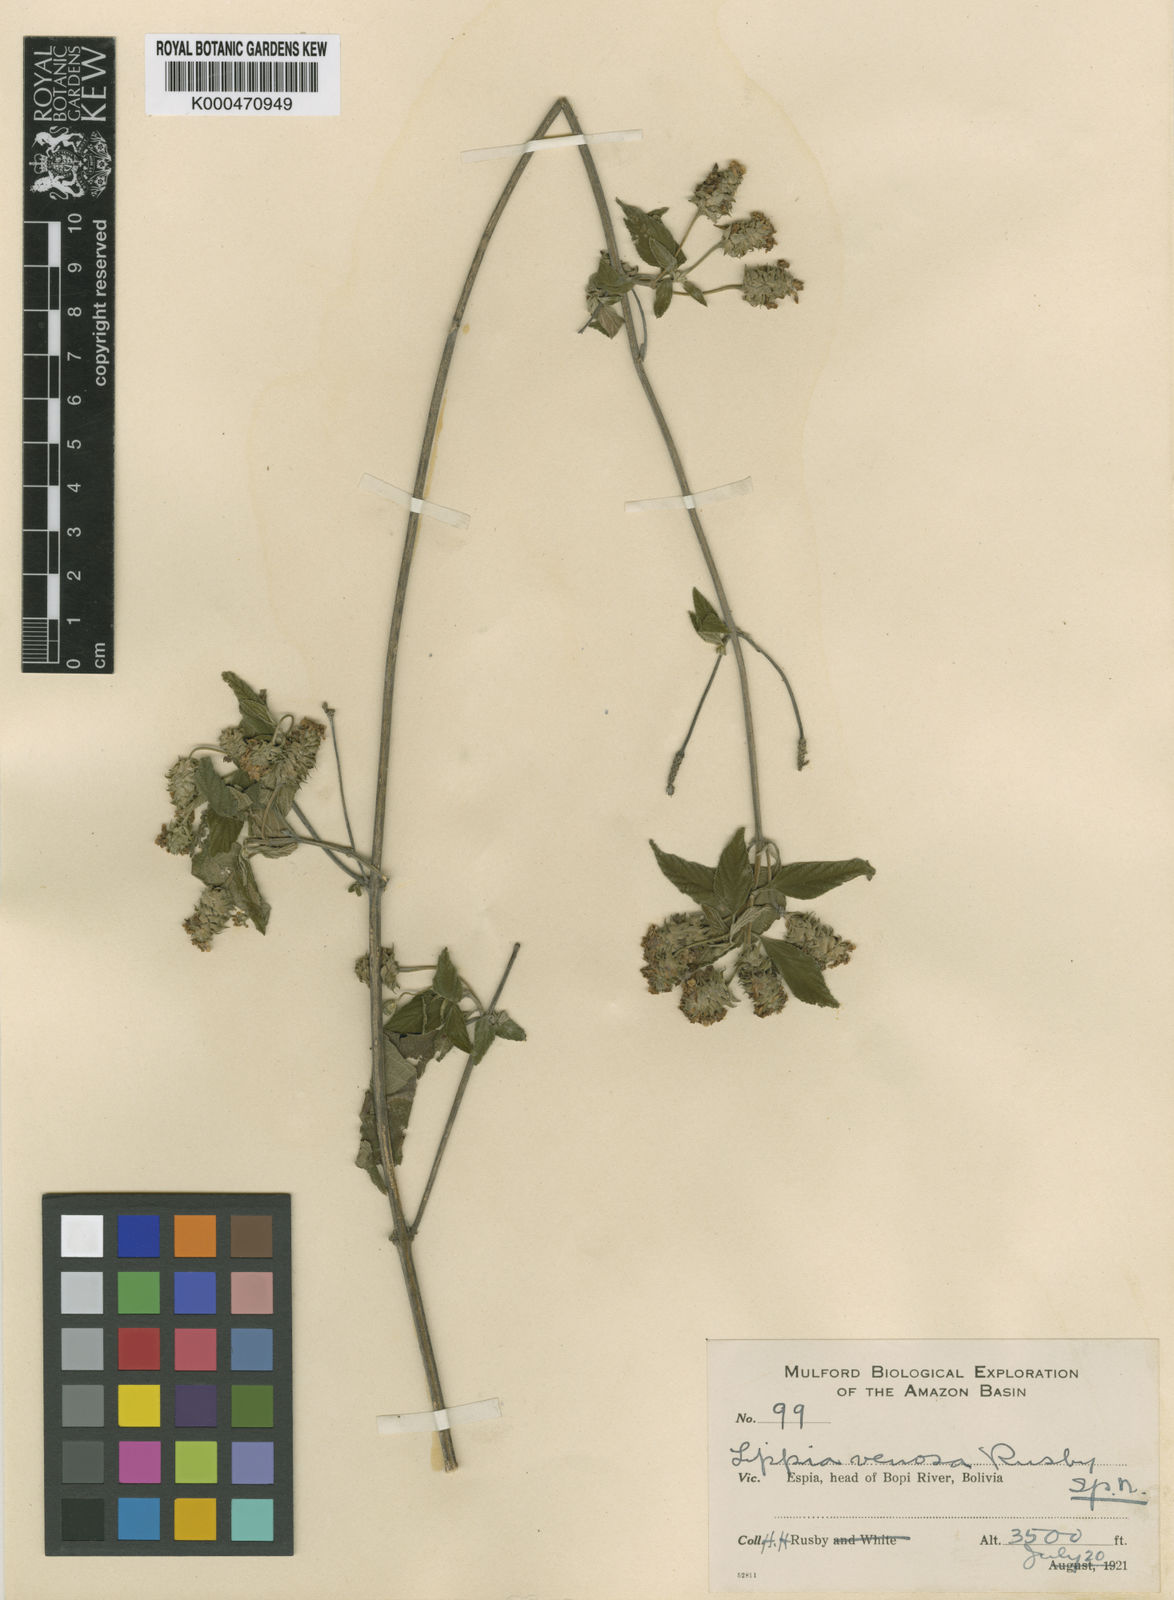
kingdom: Plantae
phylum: Tracheophyta
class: Magnoliopsida
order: Lamiales
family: Verbenaceae
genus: Lantana
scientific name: Lantana venosa
